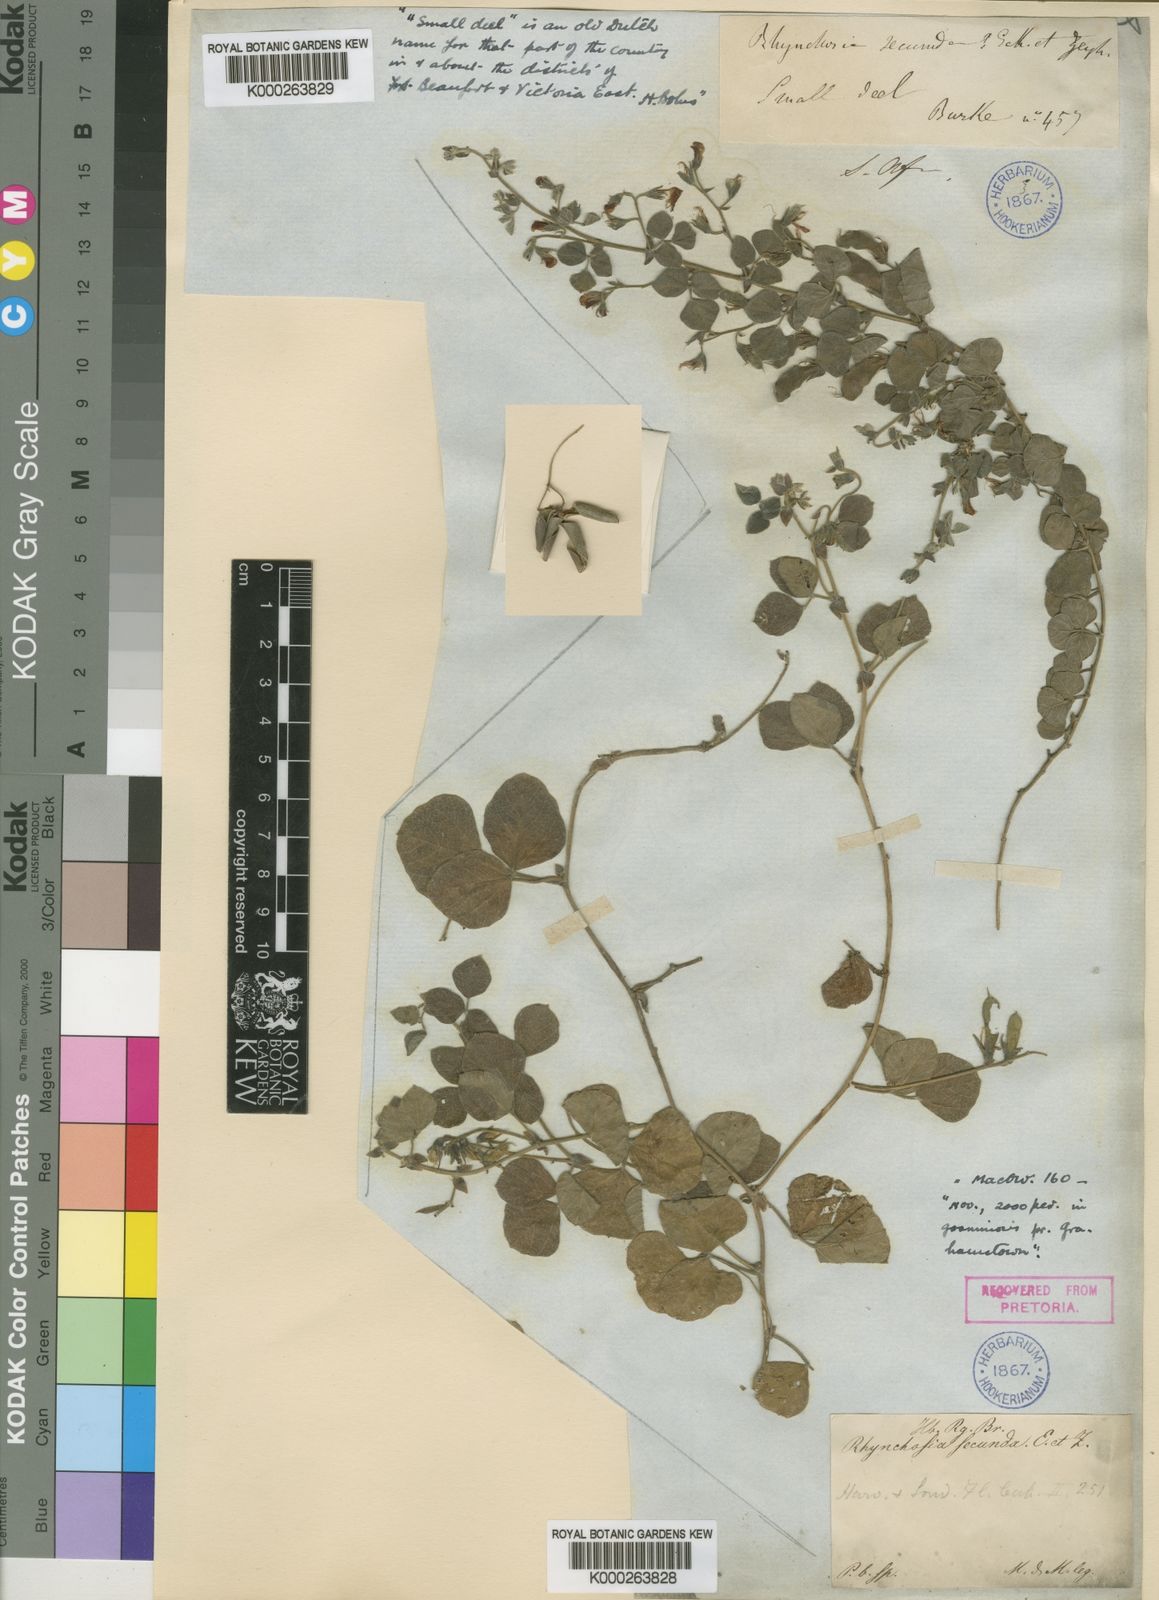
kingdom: Plantae
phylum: Tracheophyta
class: Magnoliopsida
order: Fabales
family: Fabaceae
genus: Rhynchosia
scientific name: Rhynchosia
